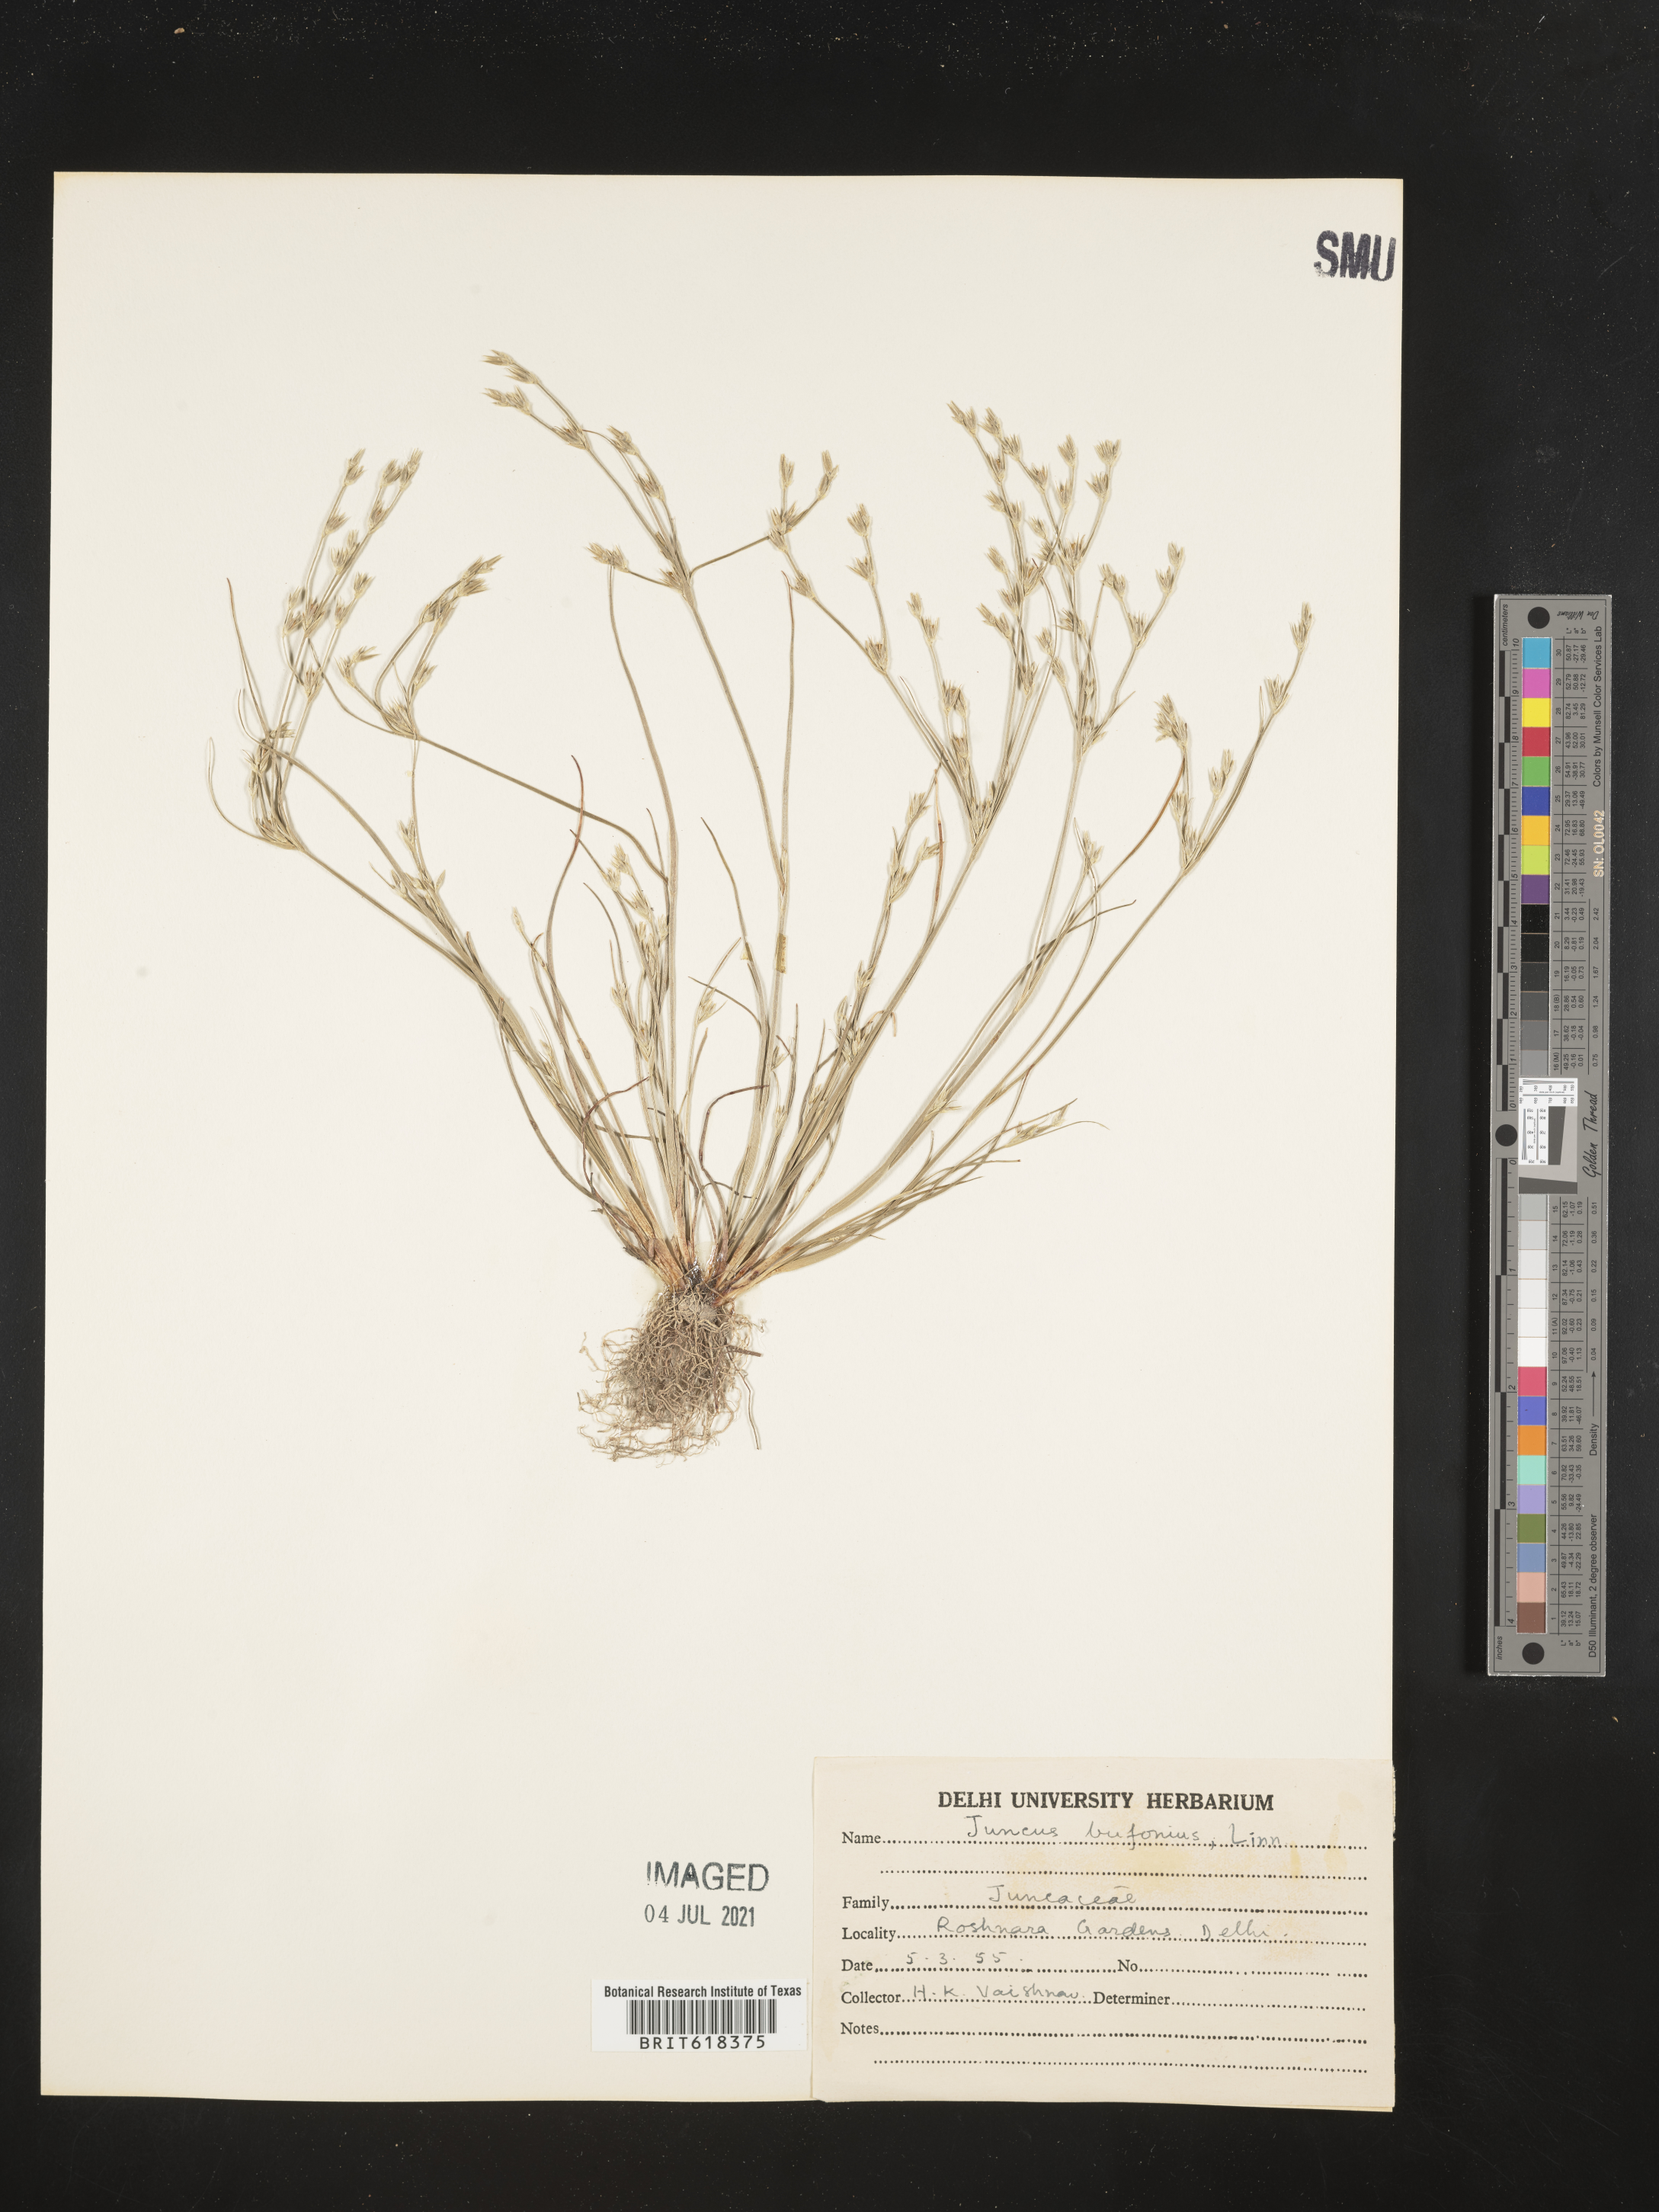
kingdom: Plantae
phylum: Tracheophyta
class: Liliopsida
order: Poales
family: Juncaceae
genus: Juncus
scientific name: Juncus bufonius
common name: Toad rush
